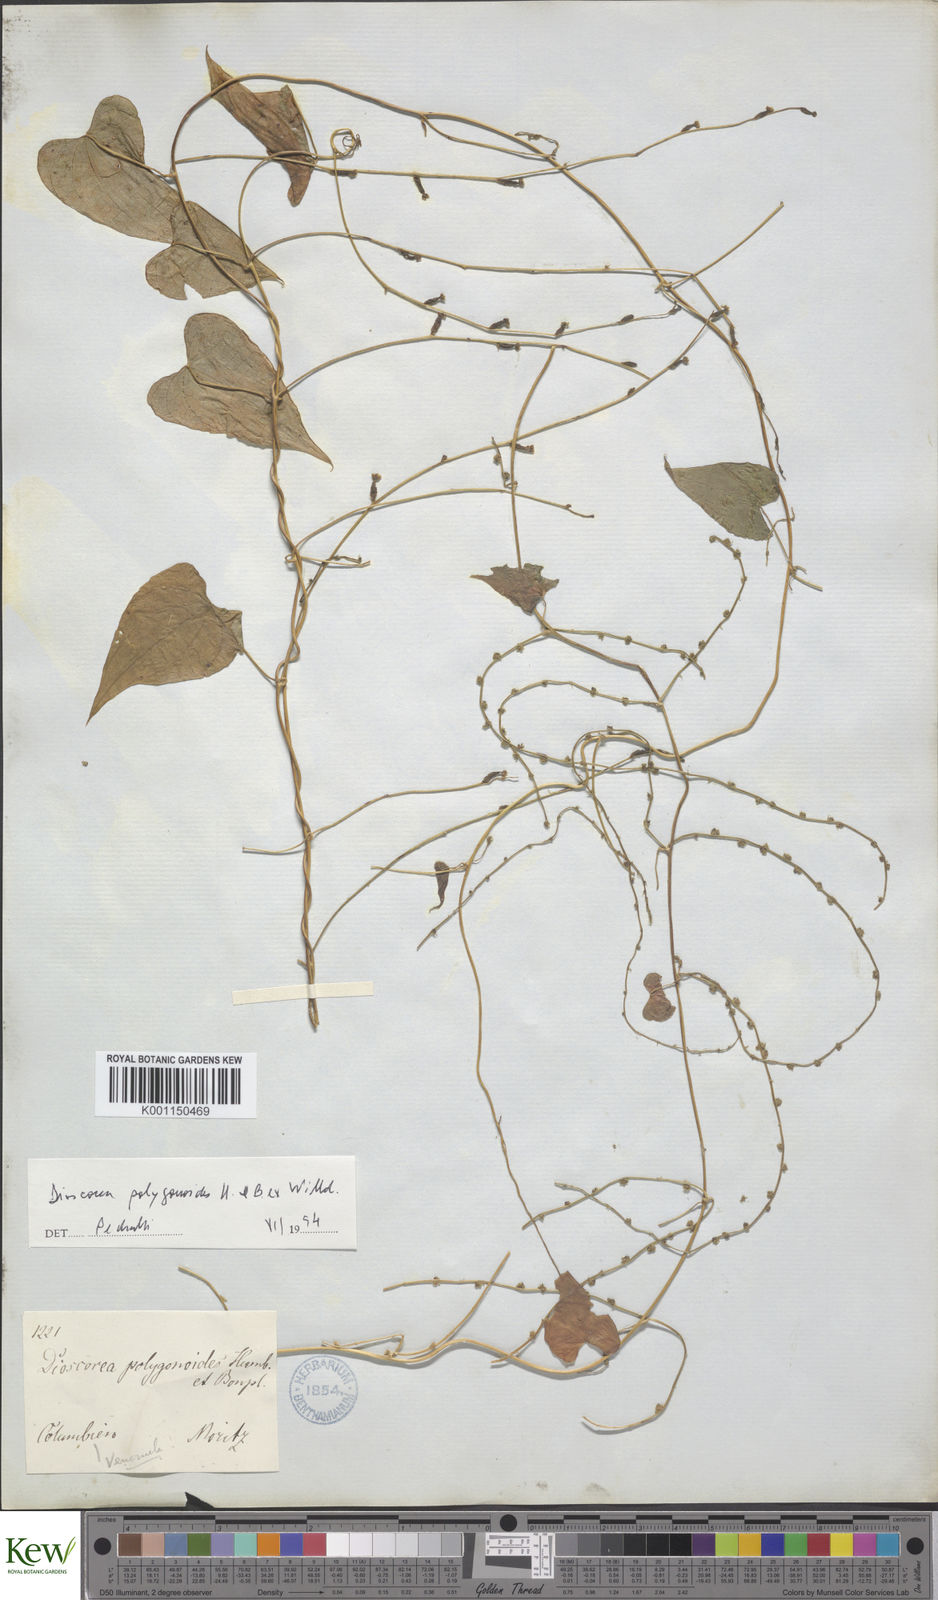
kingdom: Plantae
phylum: Tracheophyta
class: Liliopsida
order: Dioscoreales
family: Dioscoreaceae
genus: Dioscorea
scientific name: Dioscorea polygonoides
